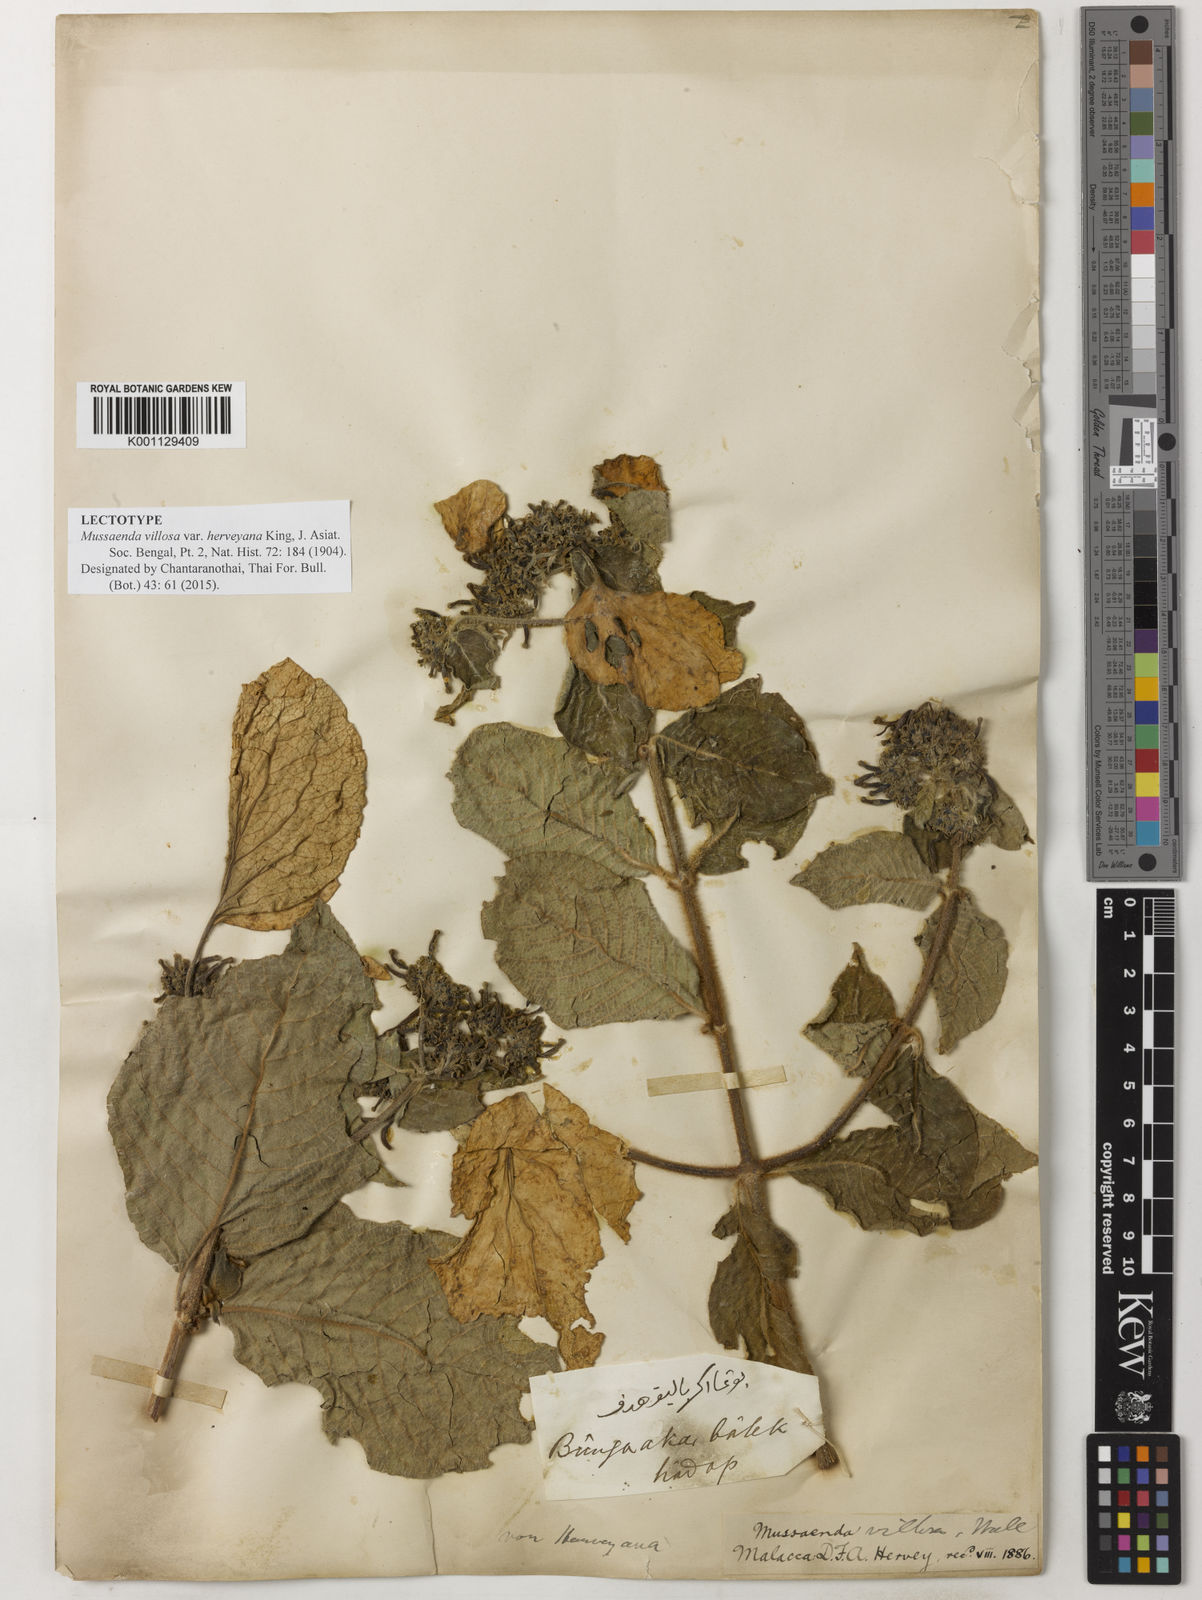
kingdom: Plantae
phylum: Tracheophyta
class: Magnoliopsida
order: Gentianales
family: Rubiaceae
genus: Mussaenda
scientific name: Mussaenda villosa
